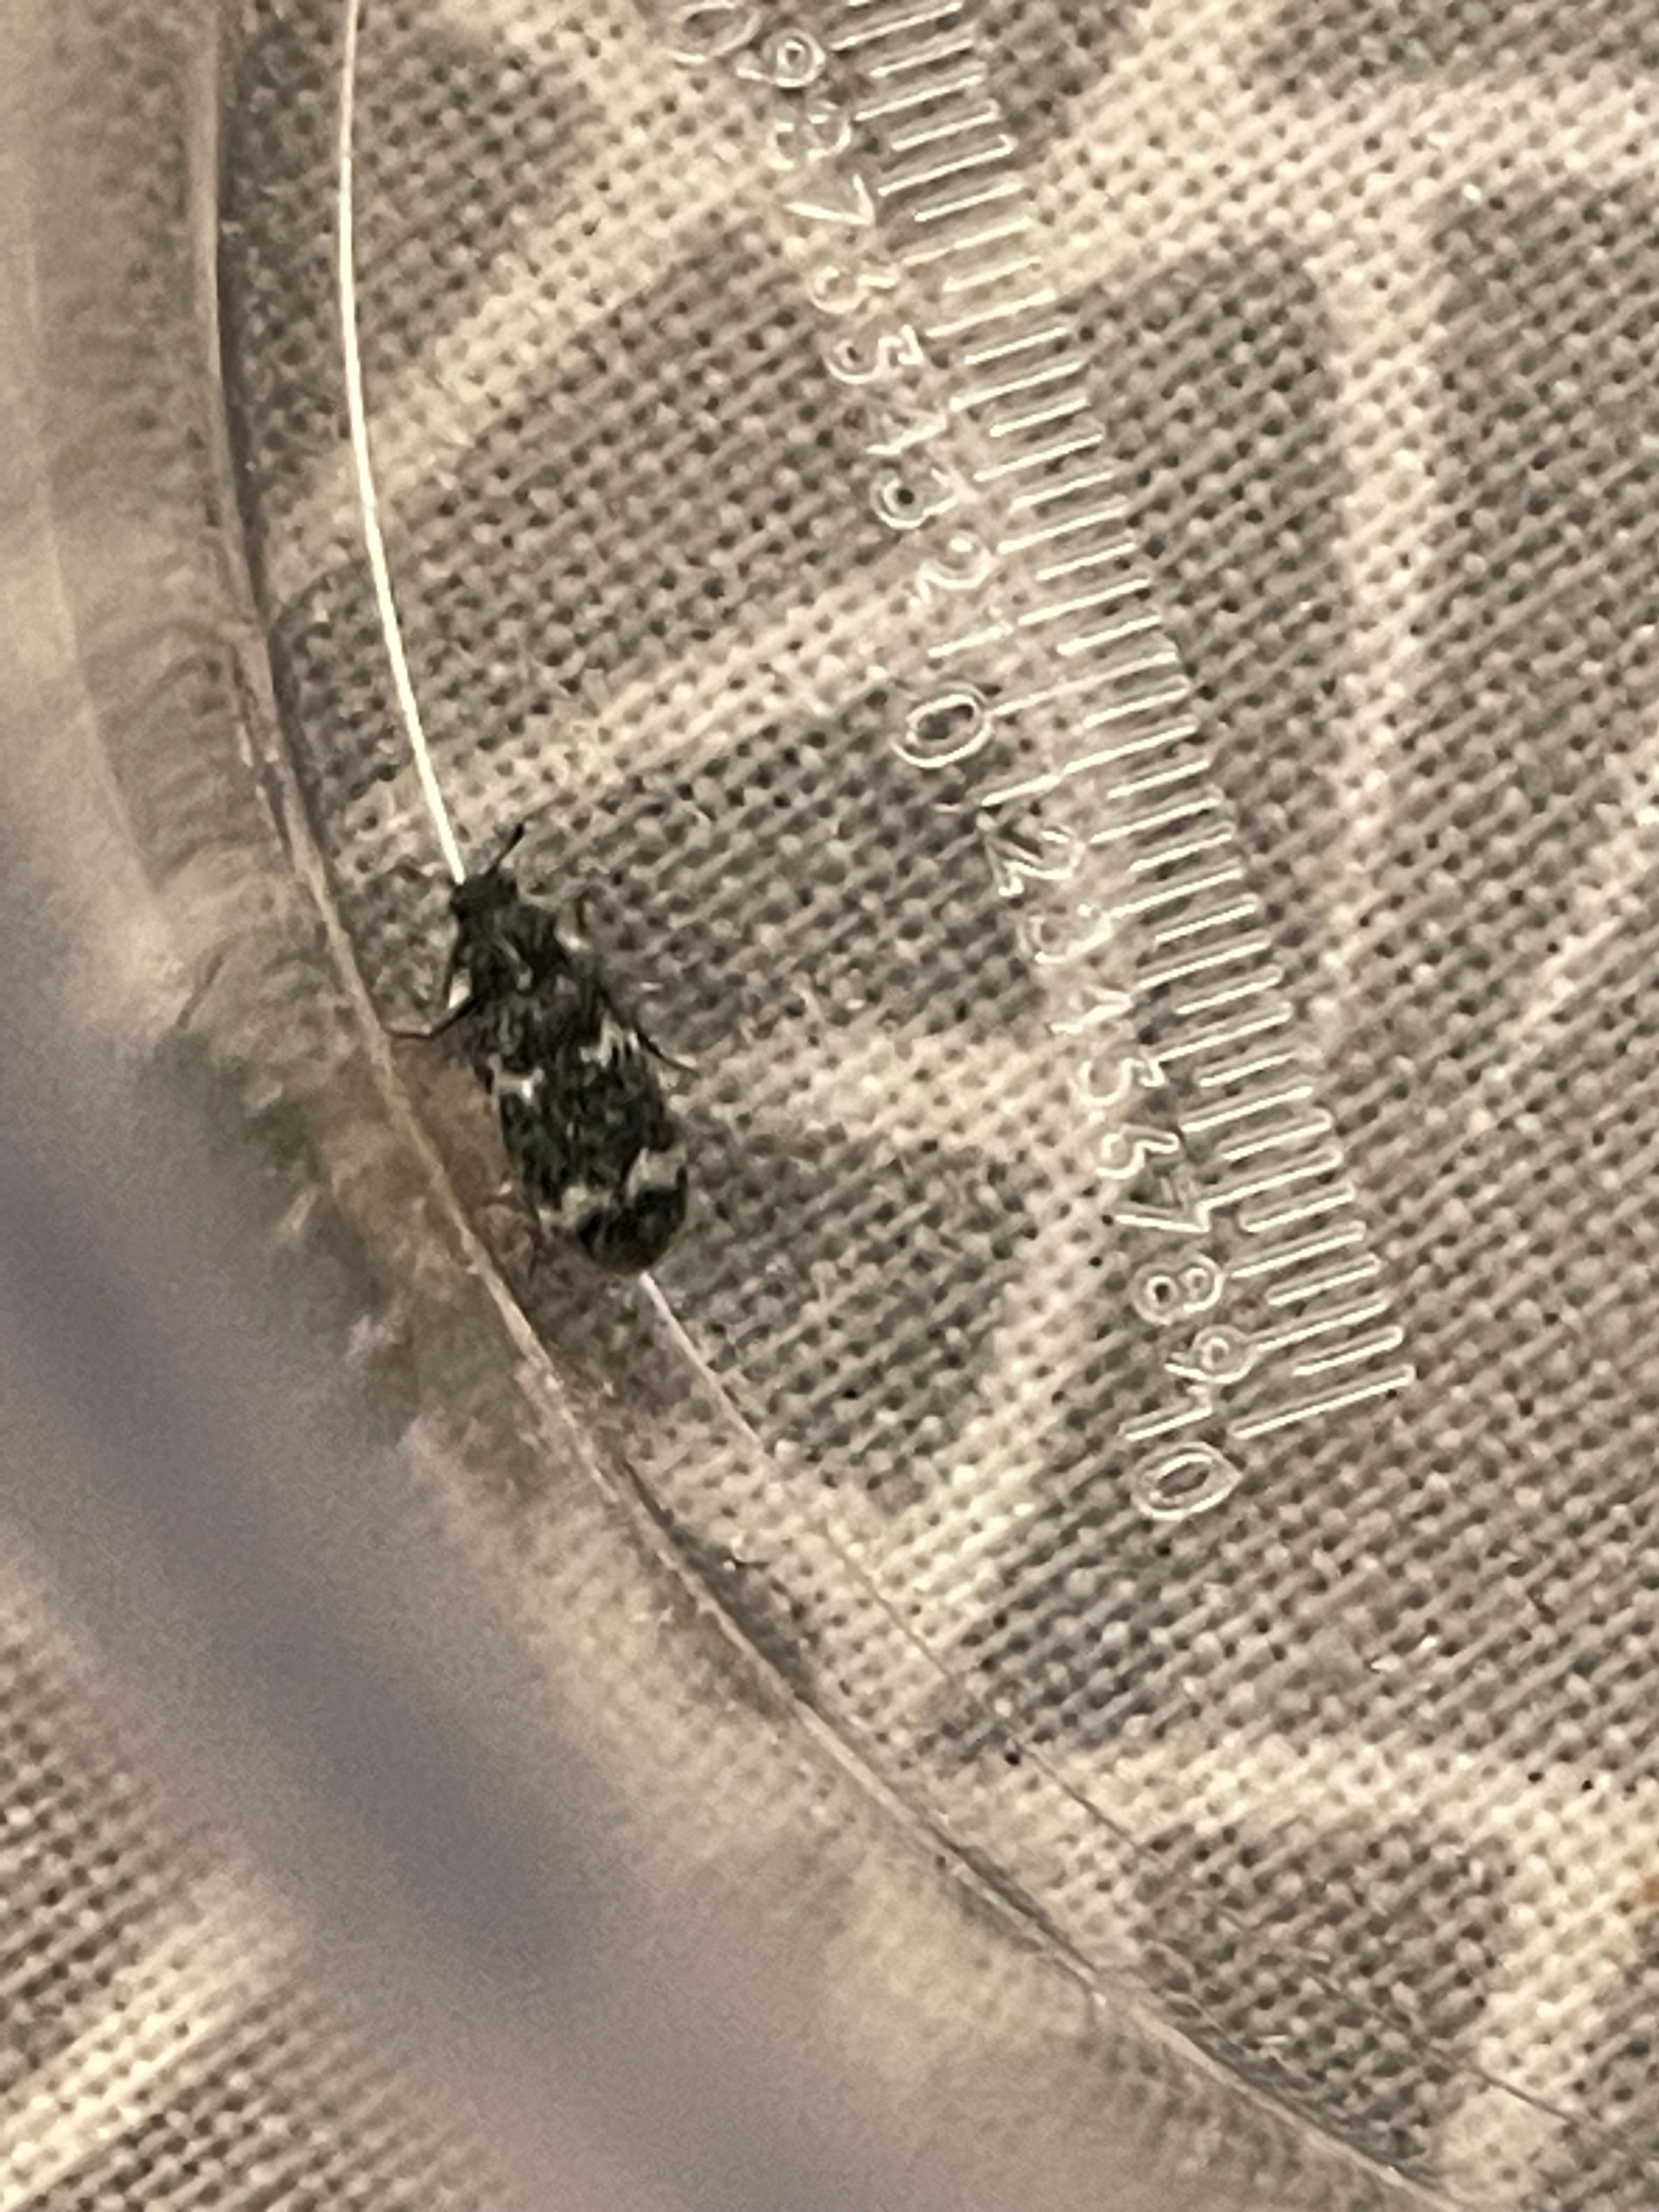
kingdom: Animalia
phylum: Arthropoda
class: Insecta
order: Coleoptera
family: Dermestidae
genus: Megatoma
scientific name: Megatoma undata
